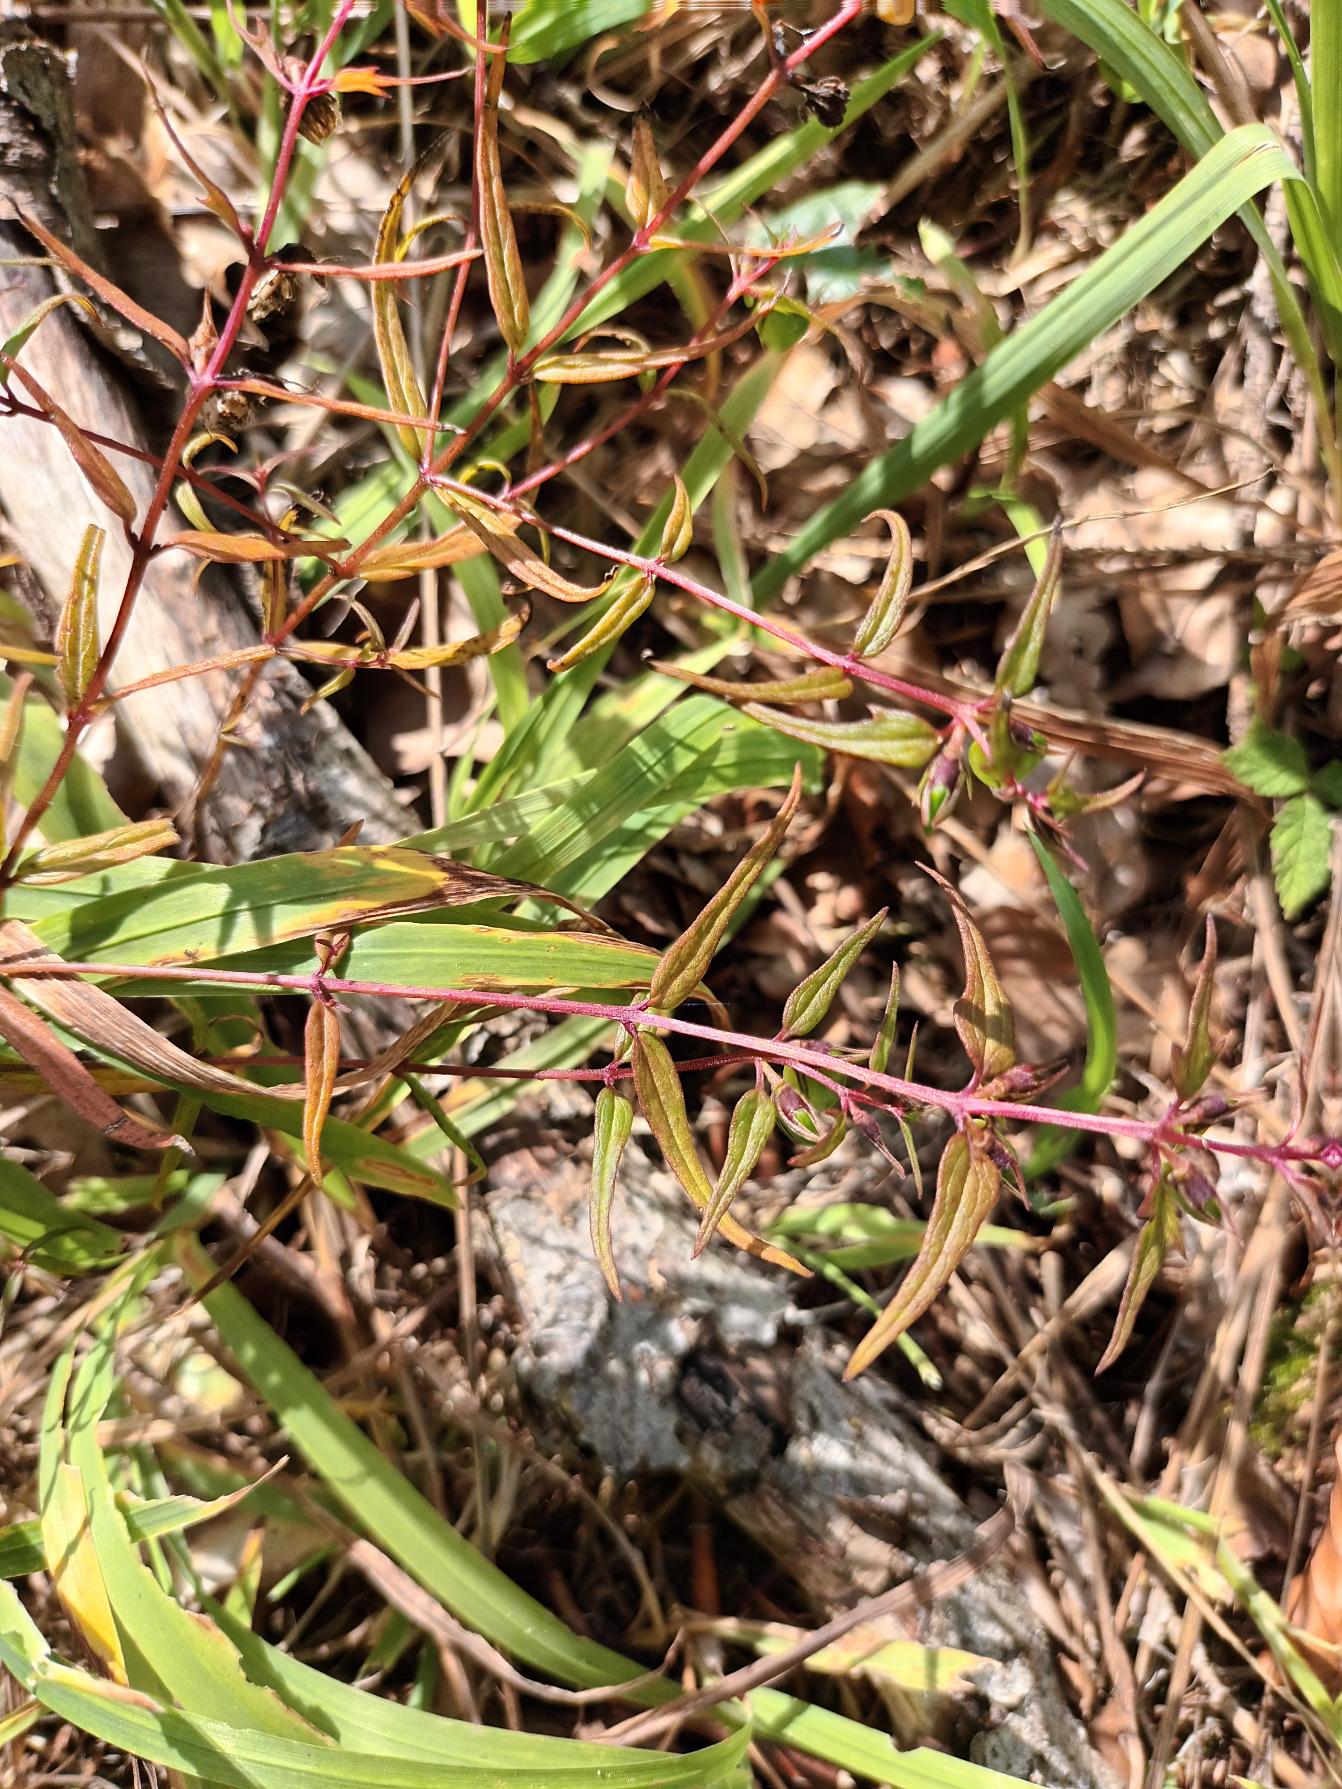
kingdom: Plantae
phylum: Tracheophyta
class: Magnoliopsida
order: Lamiales
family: Orobanchaceae
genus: Melampyrum
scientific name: Melampyrum pratense
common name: Almindelig kohvede
